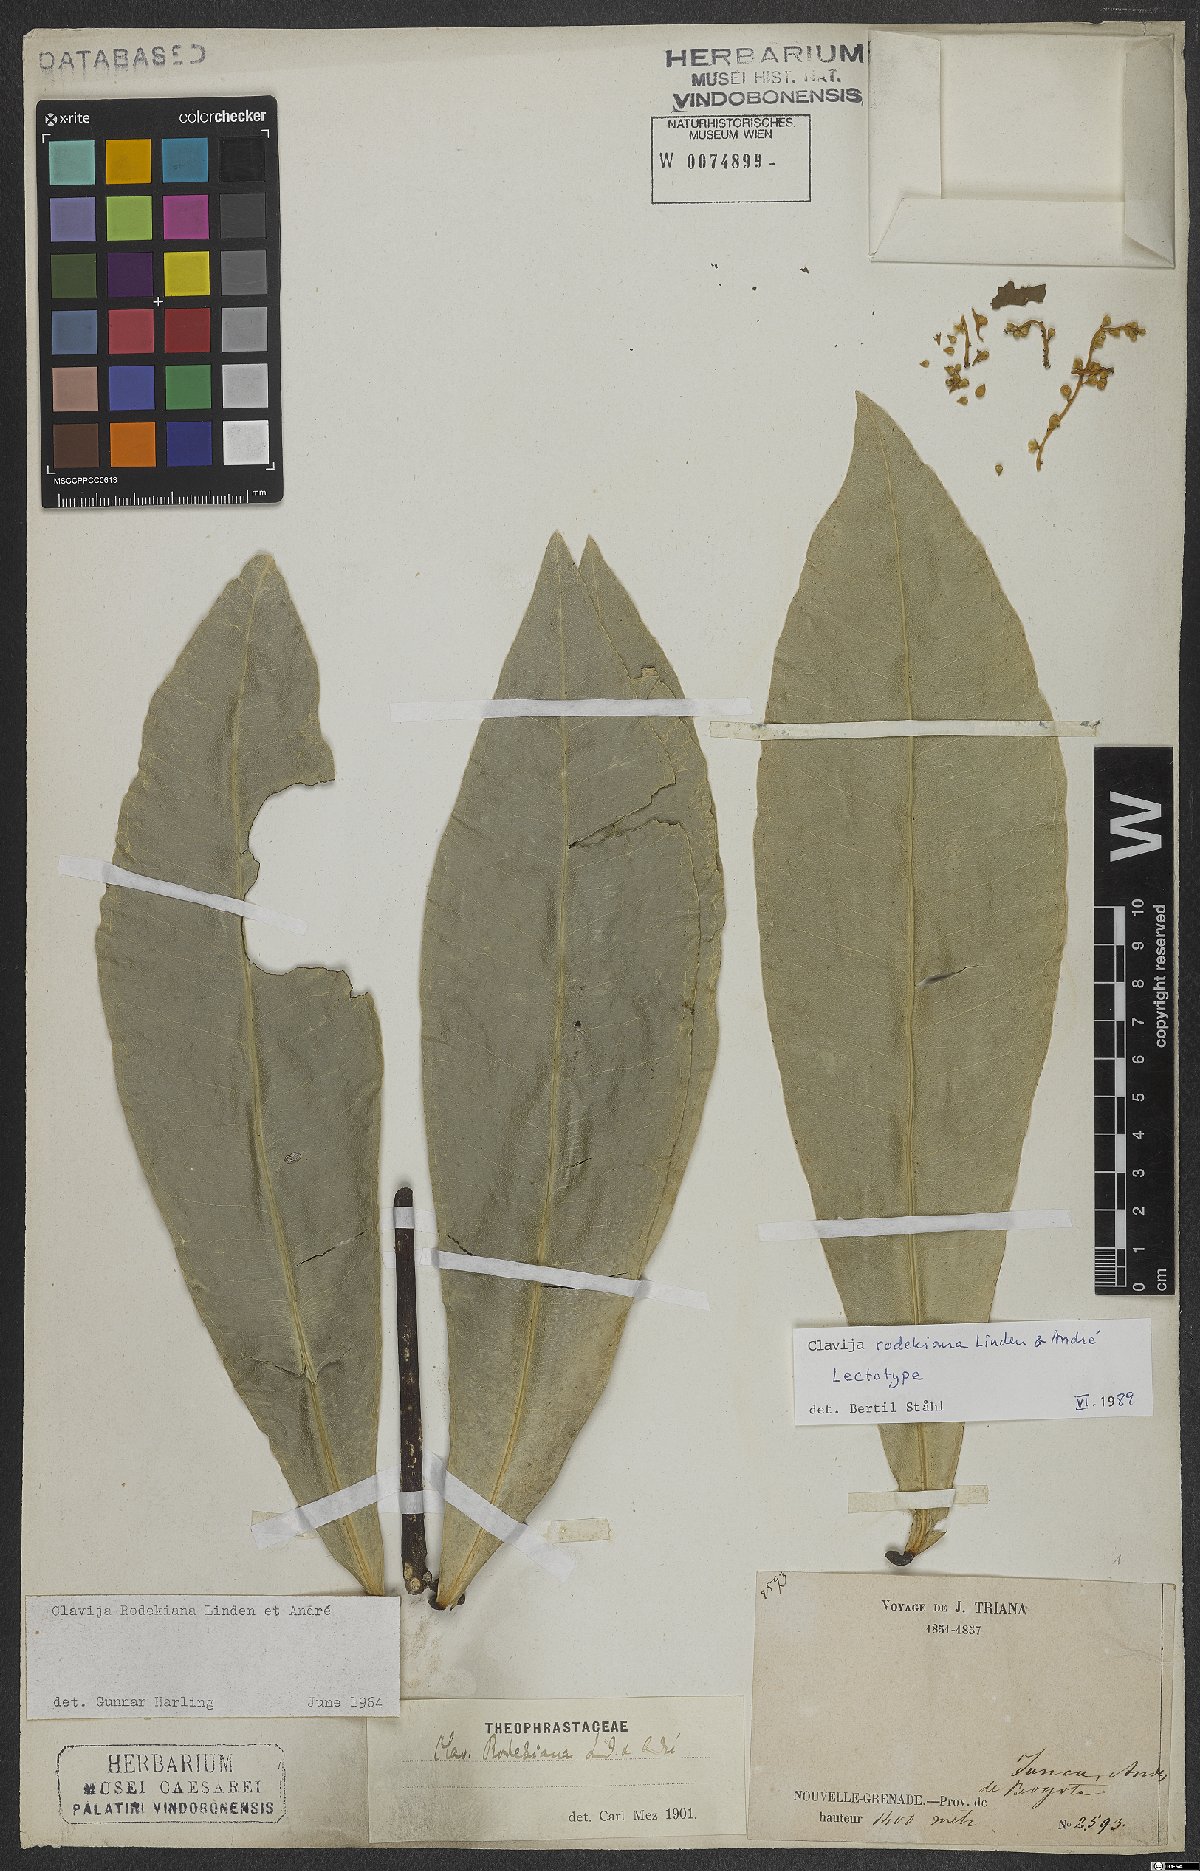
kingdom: Plantae
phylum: Tracheophyta
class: Magnoliopsida
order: Ericales
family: Primulaceae
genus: Clavija
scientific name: Clavija rodekiana
